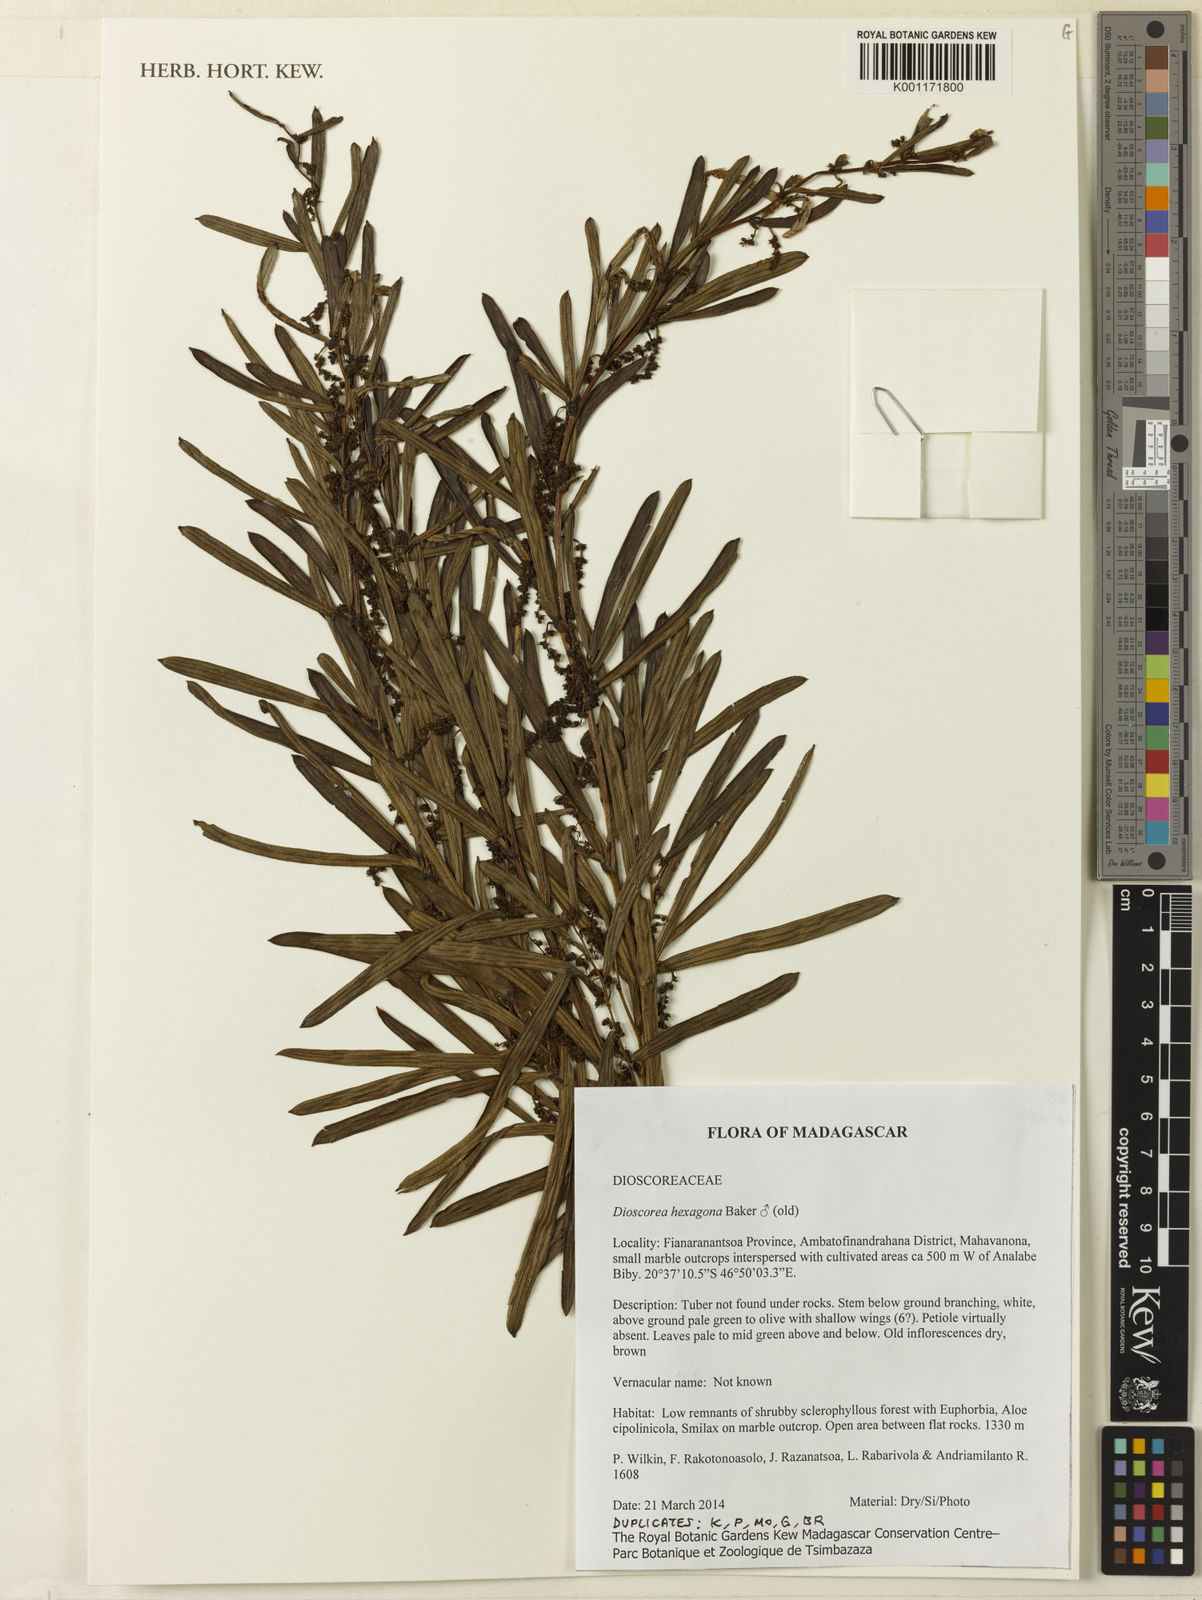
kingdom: Plantae
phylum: Tracheophyta
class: Liliopsida
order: Dioscoreales
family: Dioscoreaceae
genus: Dioscorea
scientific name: Dioscorea hexagona
